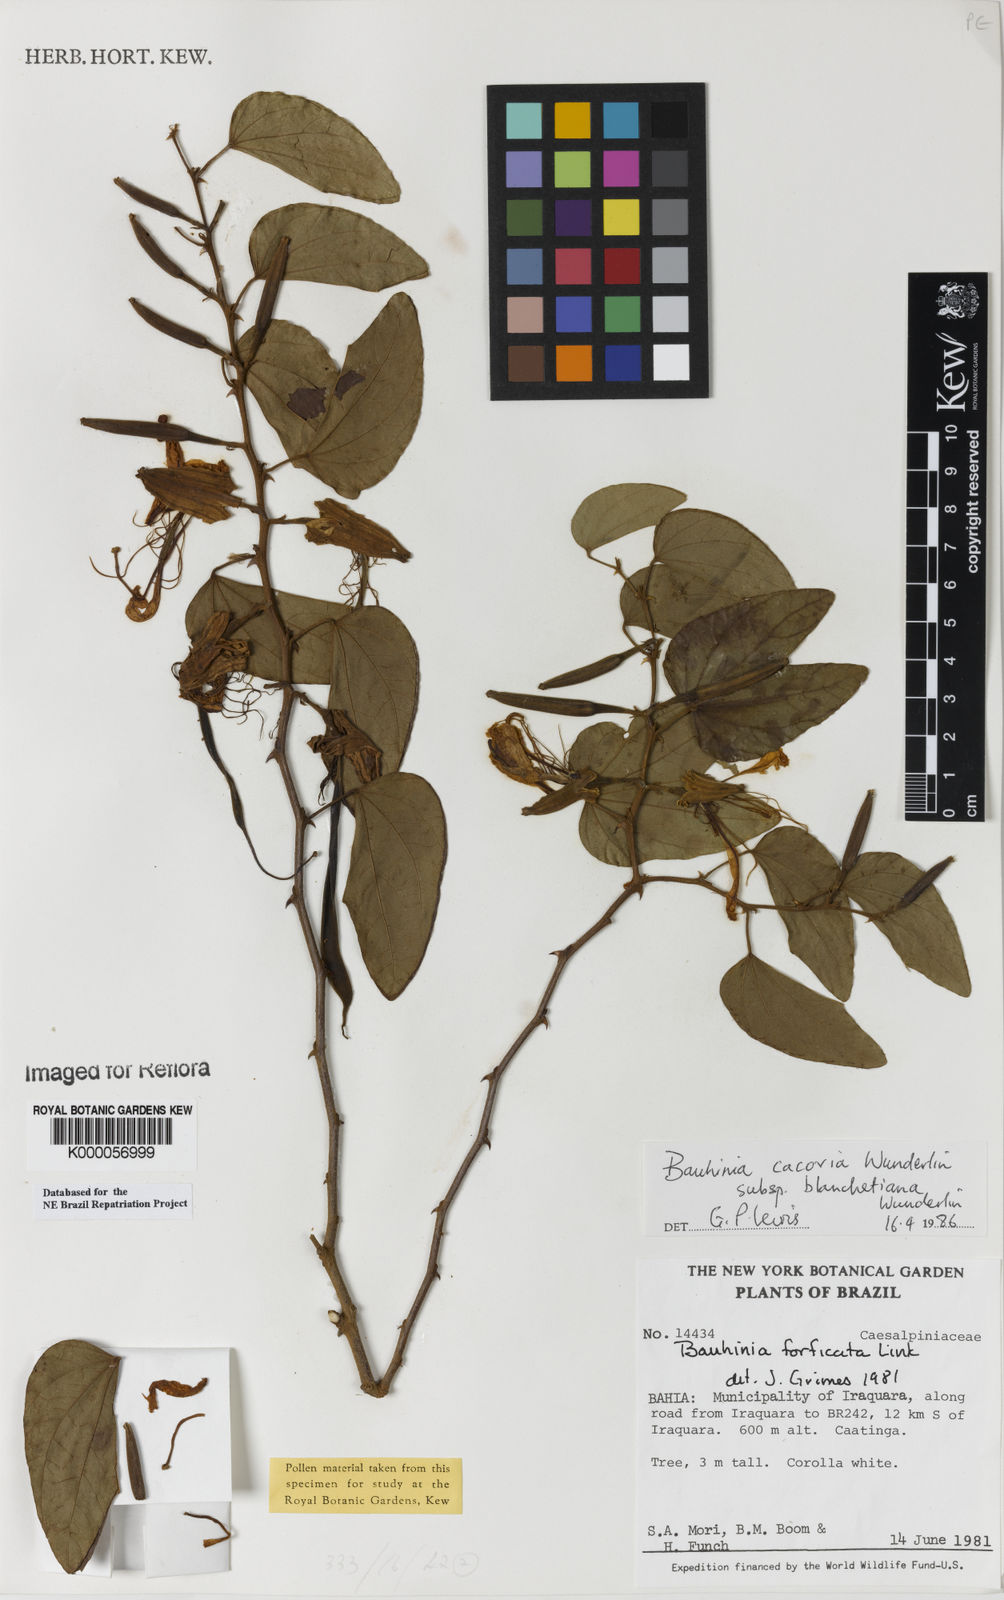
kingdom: Plantae
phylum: Tracheophyta
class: Magnoliopsida
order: Fabales
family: Fabaceae
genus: Bauhinia
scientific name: Bauhinia
